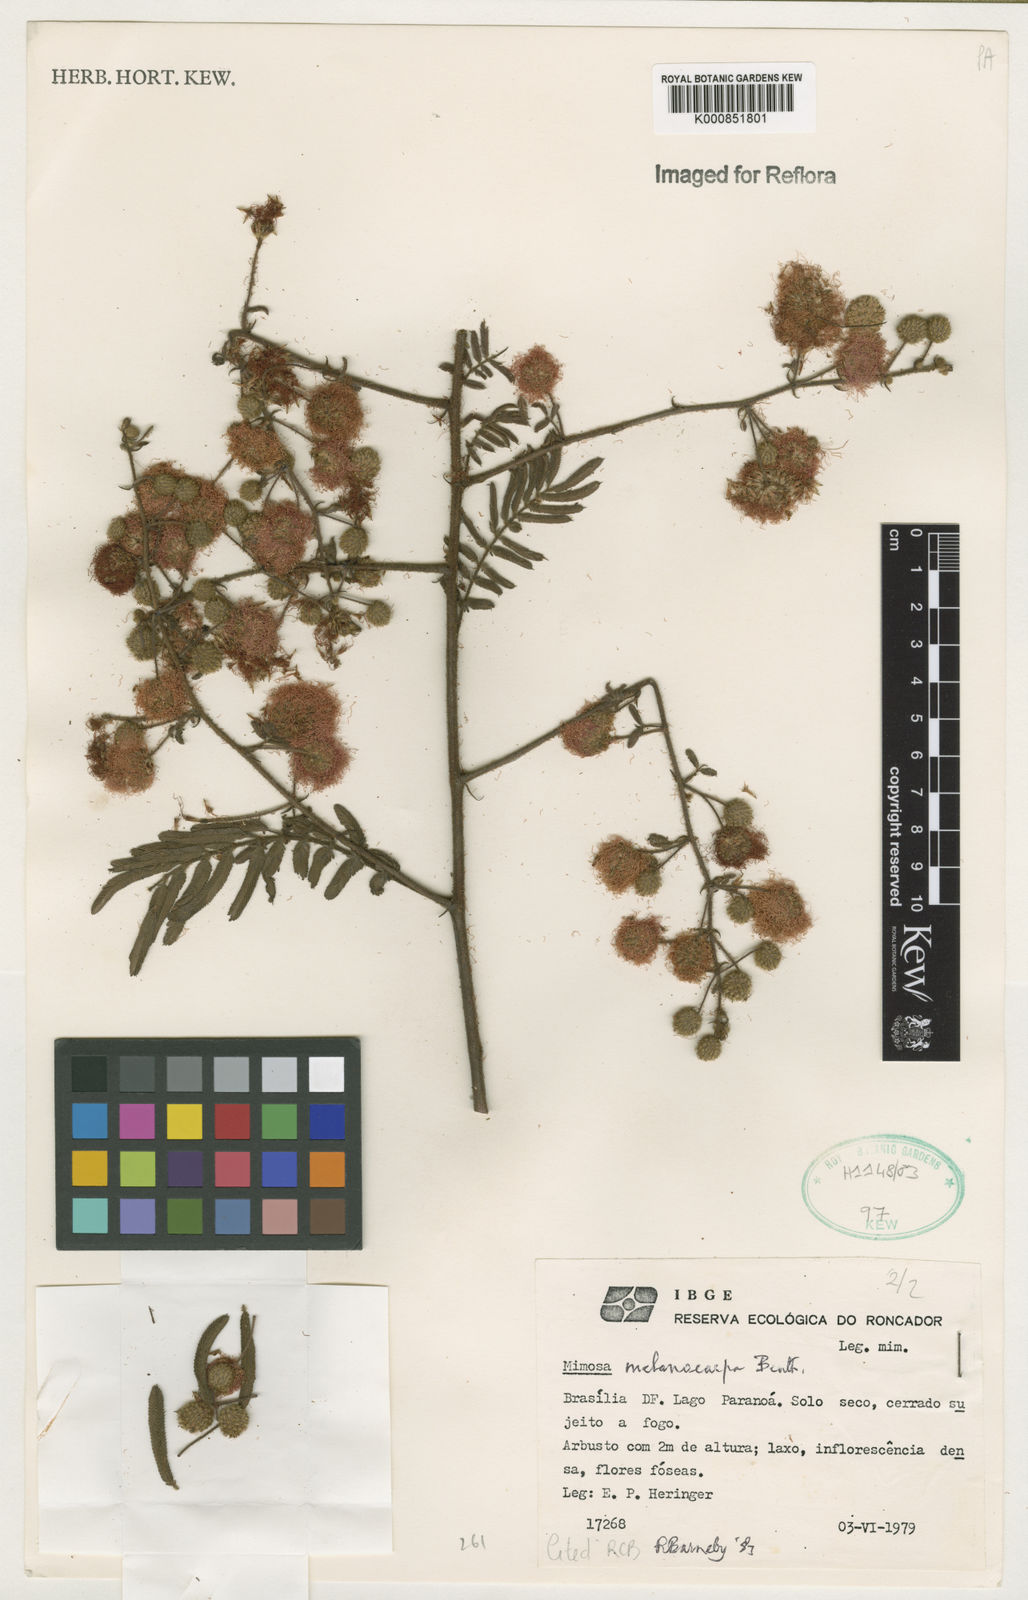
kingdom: Plantae
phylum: Tracheophyta
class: Magnoliopsida
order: Fabales
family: Fabaceae
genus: Mimosa
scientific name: Mimosa melanocarpa
